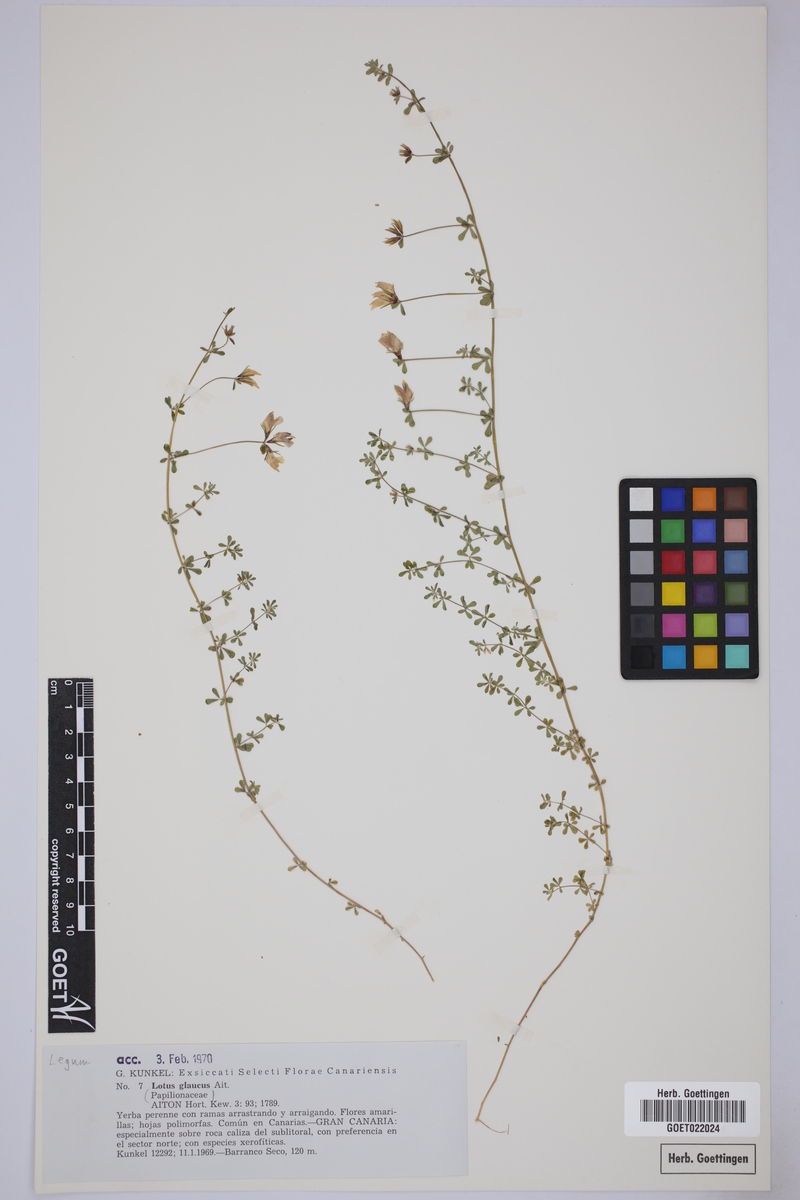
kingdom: Plantae
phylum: Tracheophyta
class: Magnoliopsida
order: Fabales
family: Fabaceae
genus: Lotus
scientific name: Lotus glaucus
